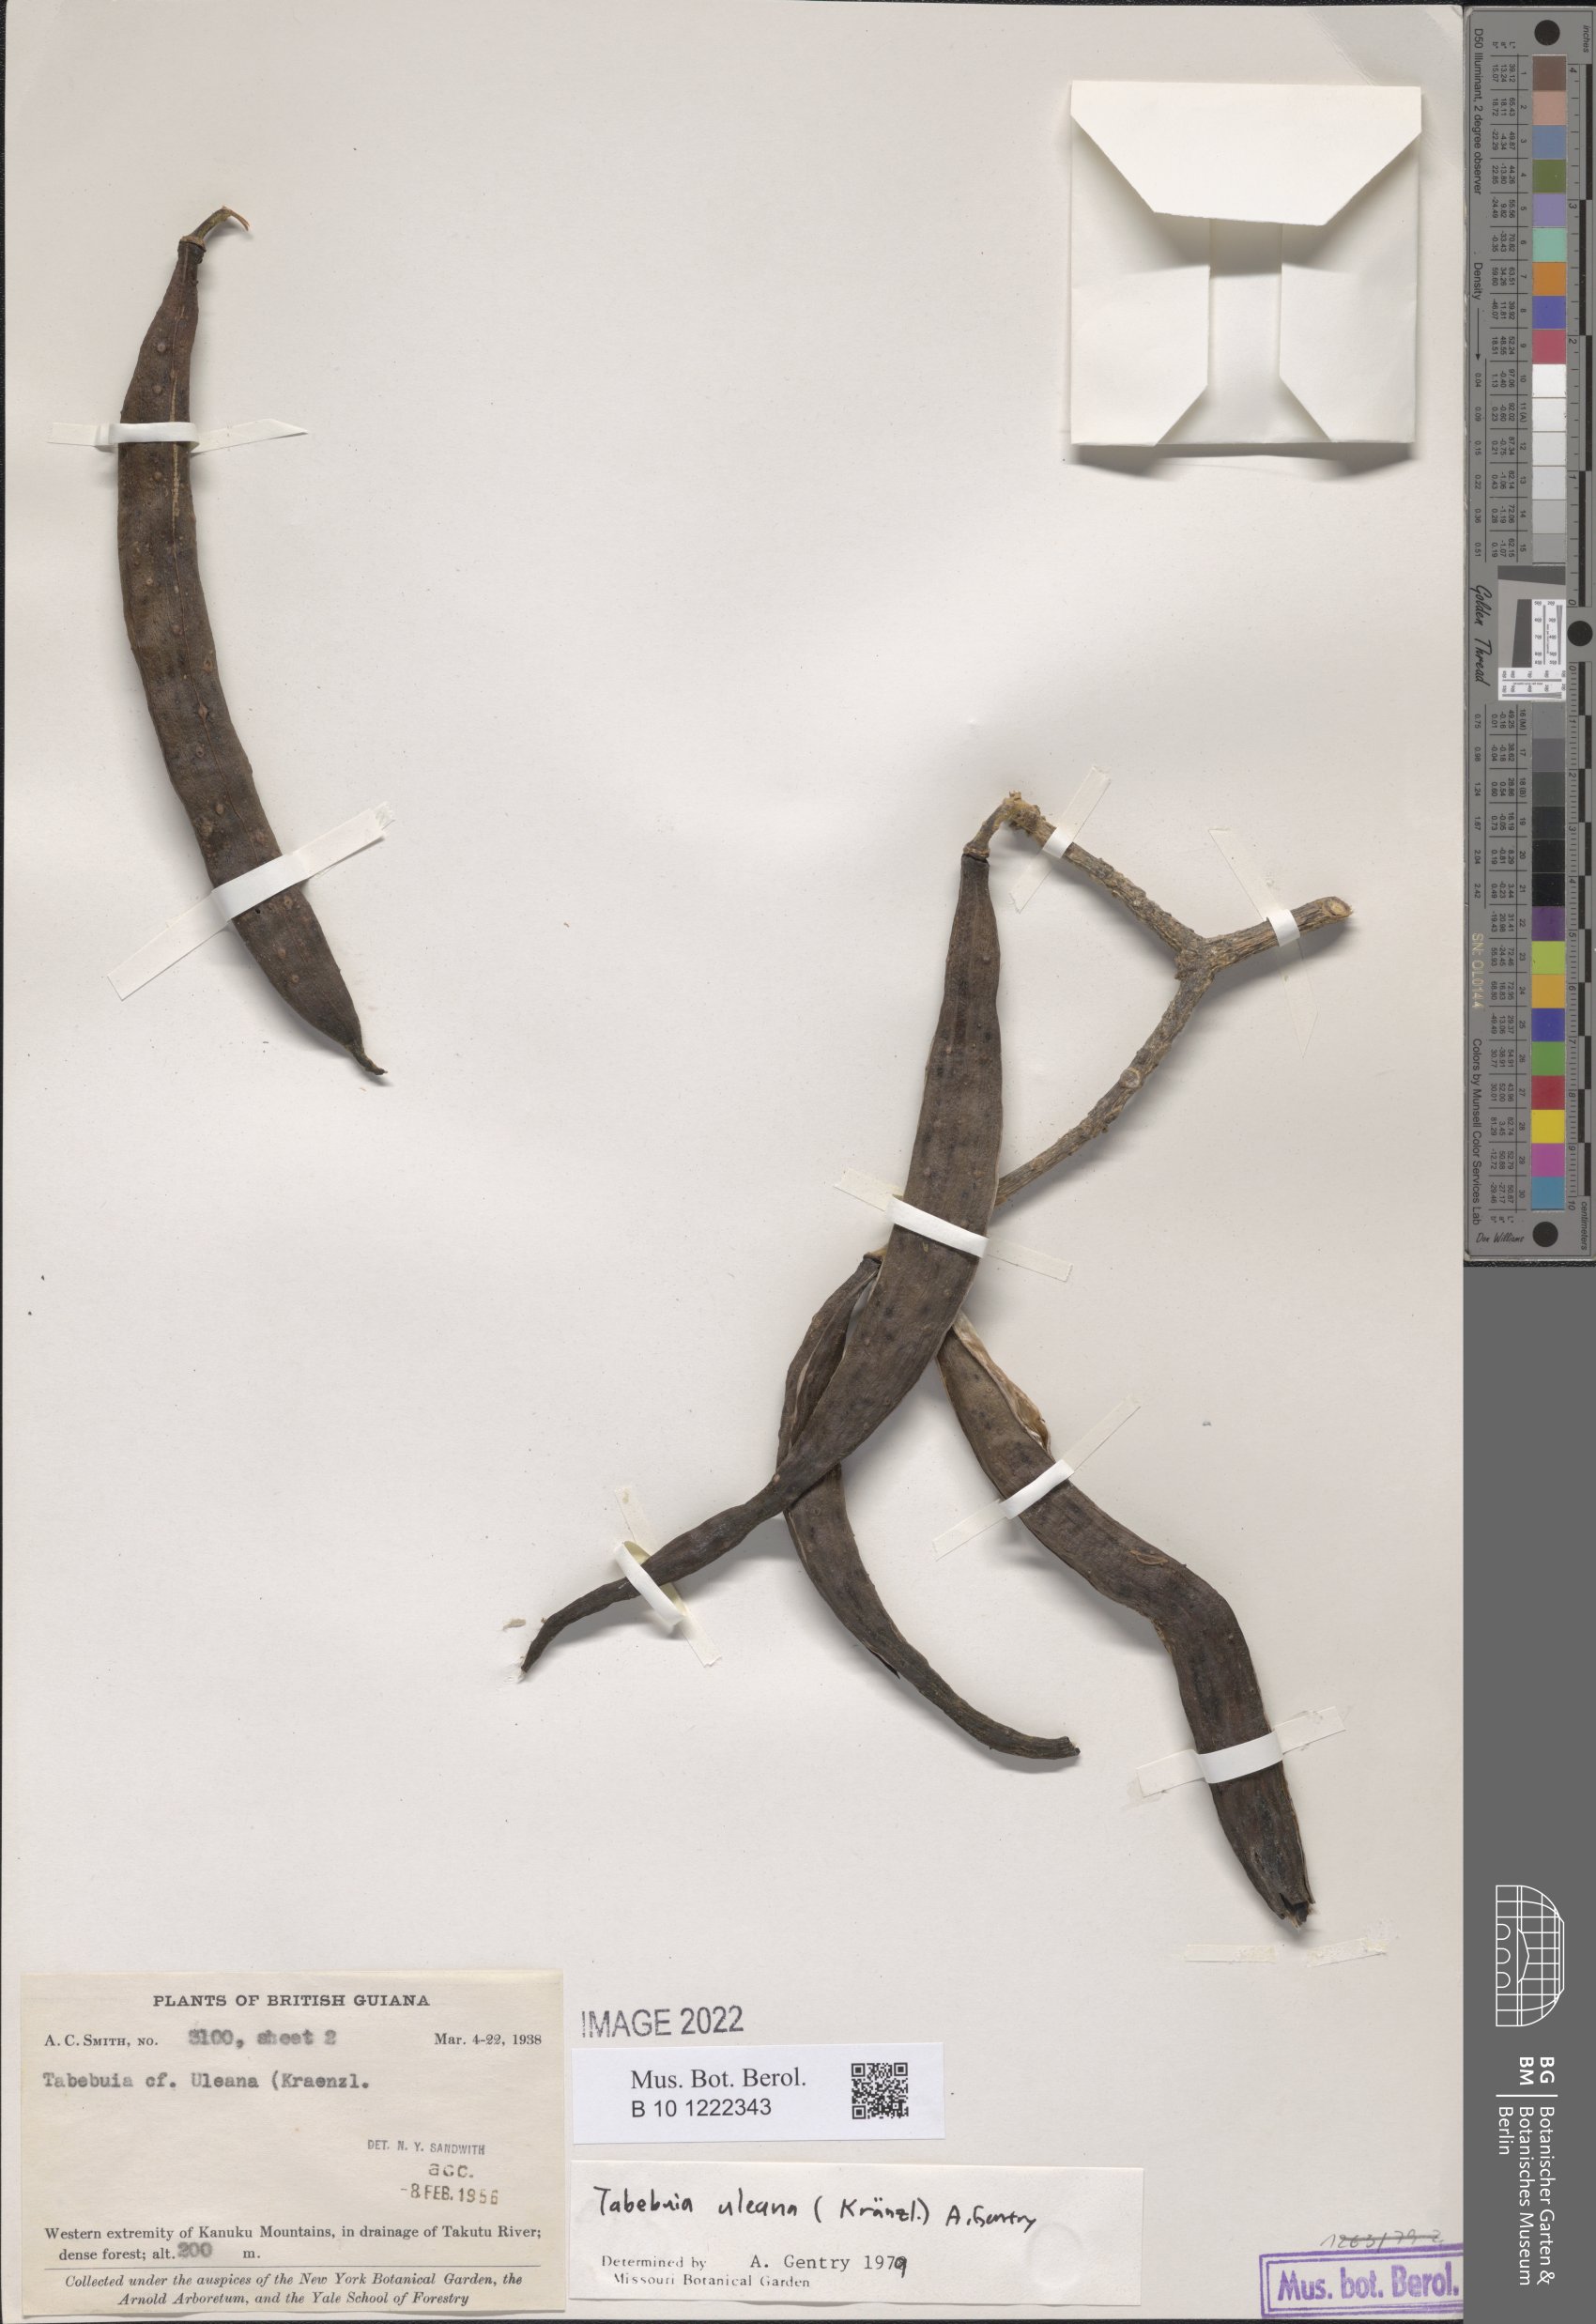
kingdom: Plantae
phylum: Tracheophyta
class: Magnoliopsida
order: Lamiales
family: Bignoniaceae
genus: Handroanthus
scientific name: Handroanthus uleanus
